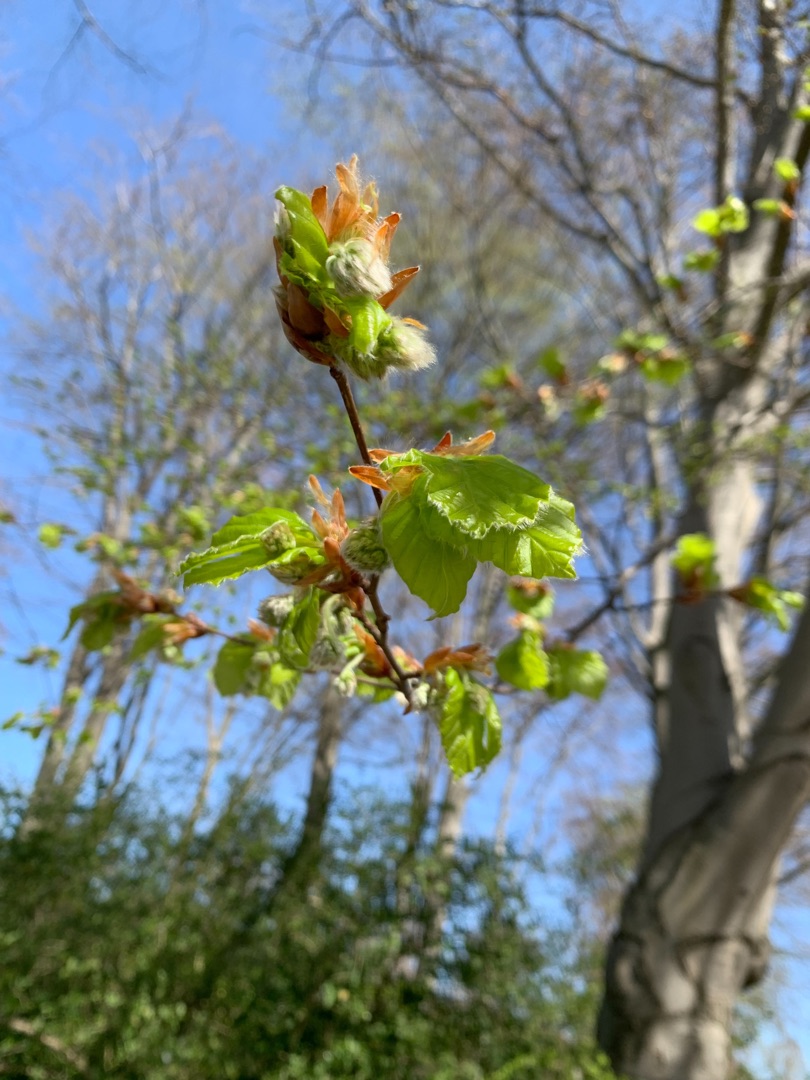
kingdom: Plantae
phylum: Tracheophyta
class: Magnoliopsida
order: Fagales
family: Fagaceae
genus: Fagus
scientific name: Fagus sylvatica
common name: Bøg
